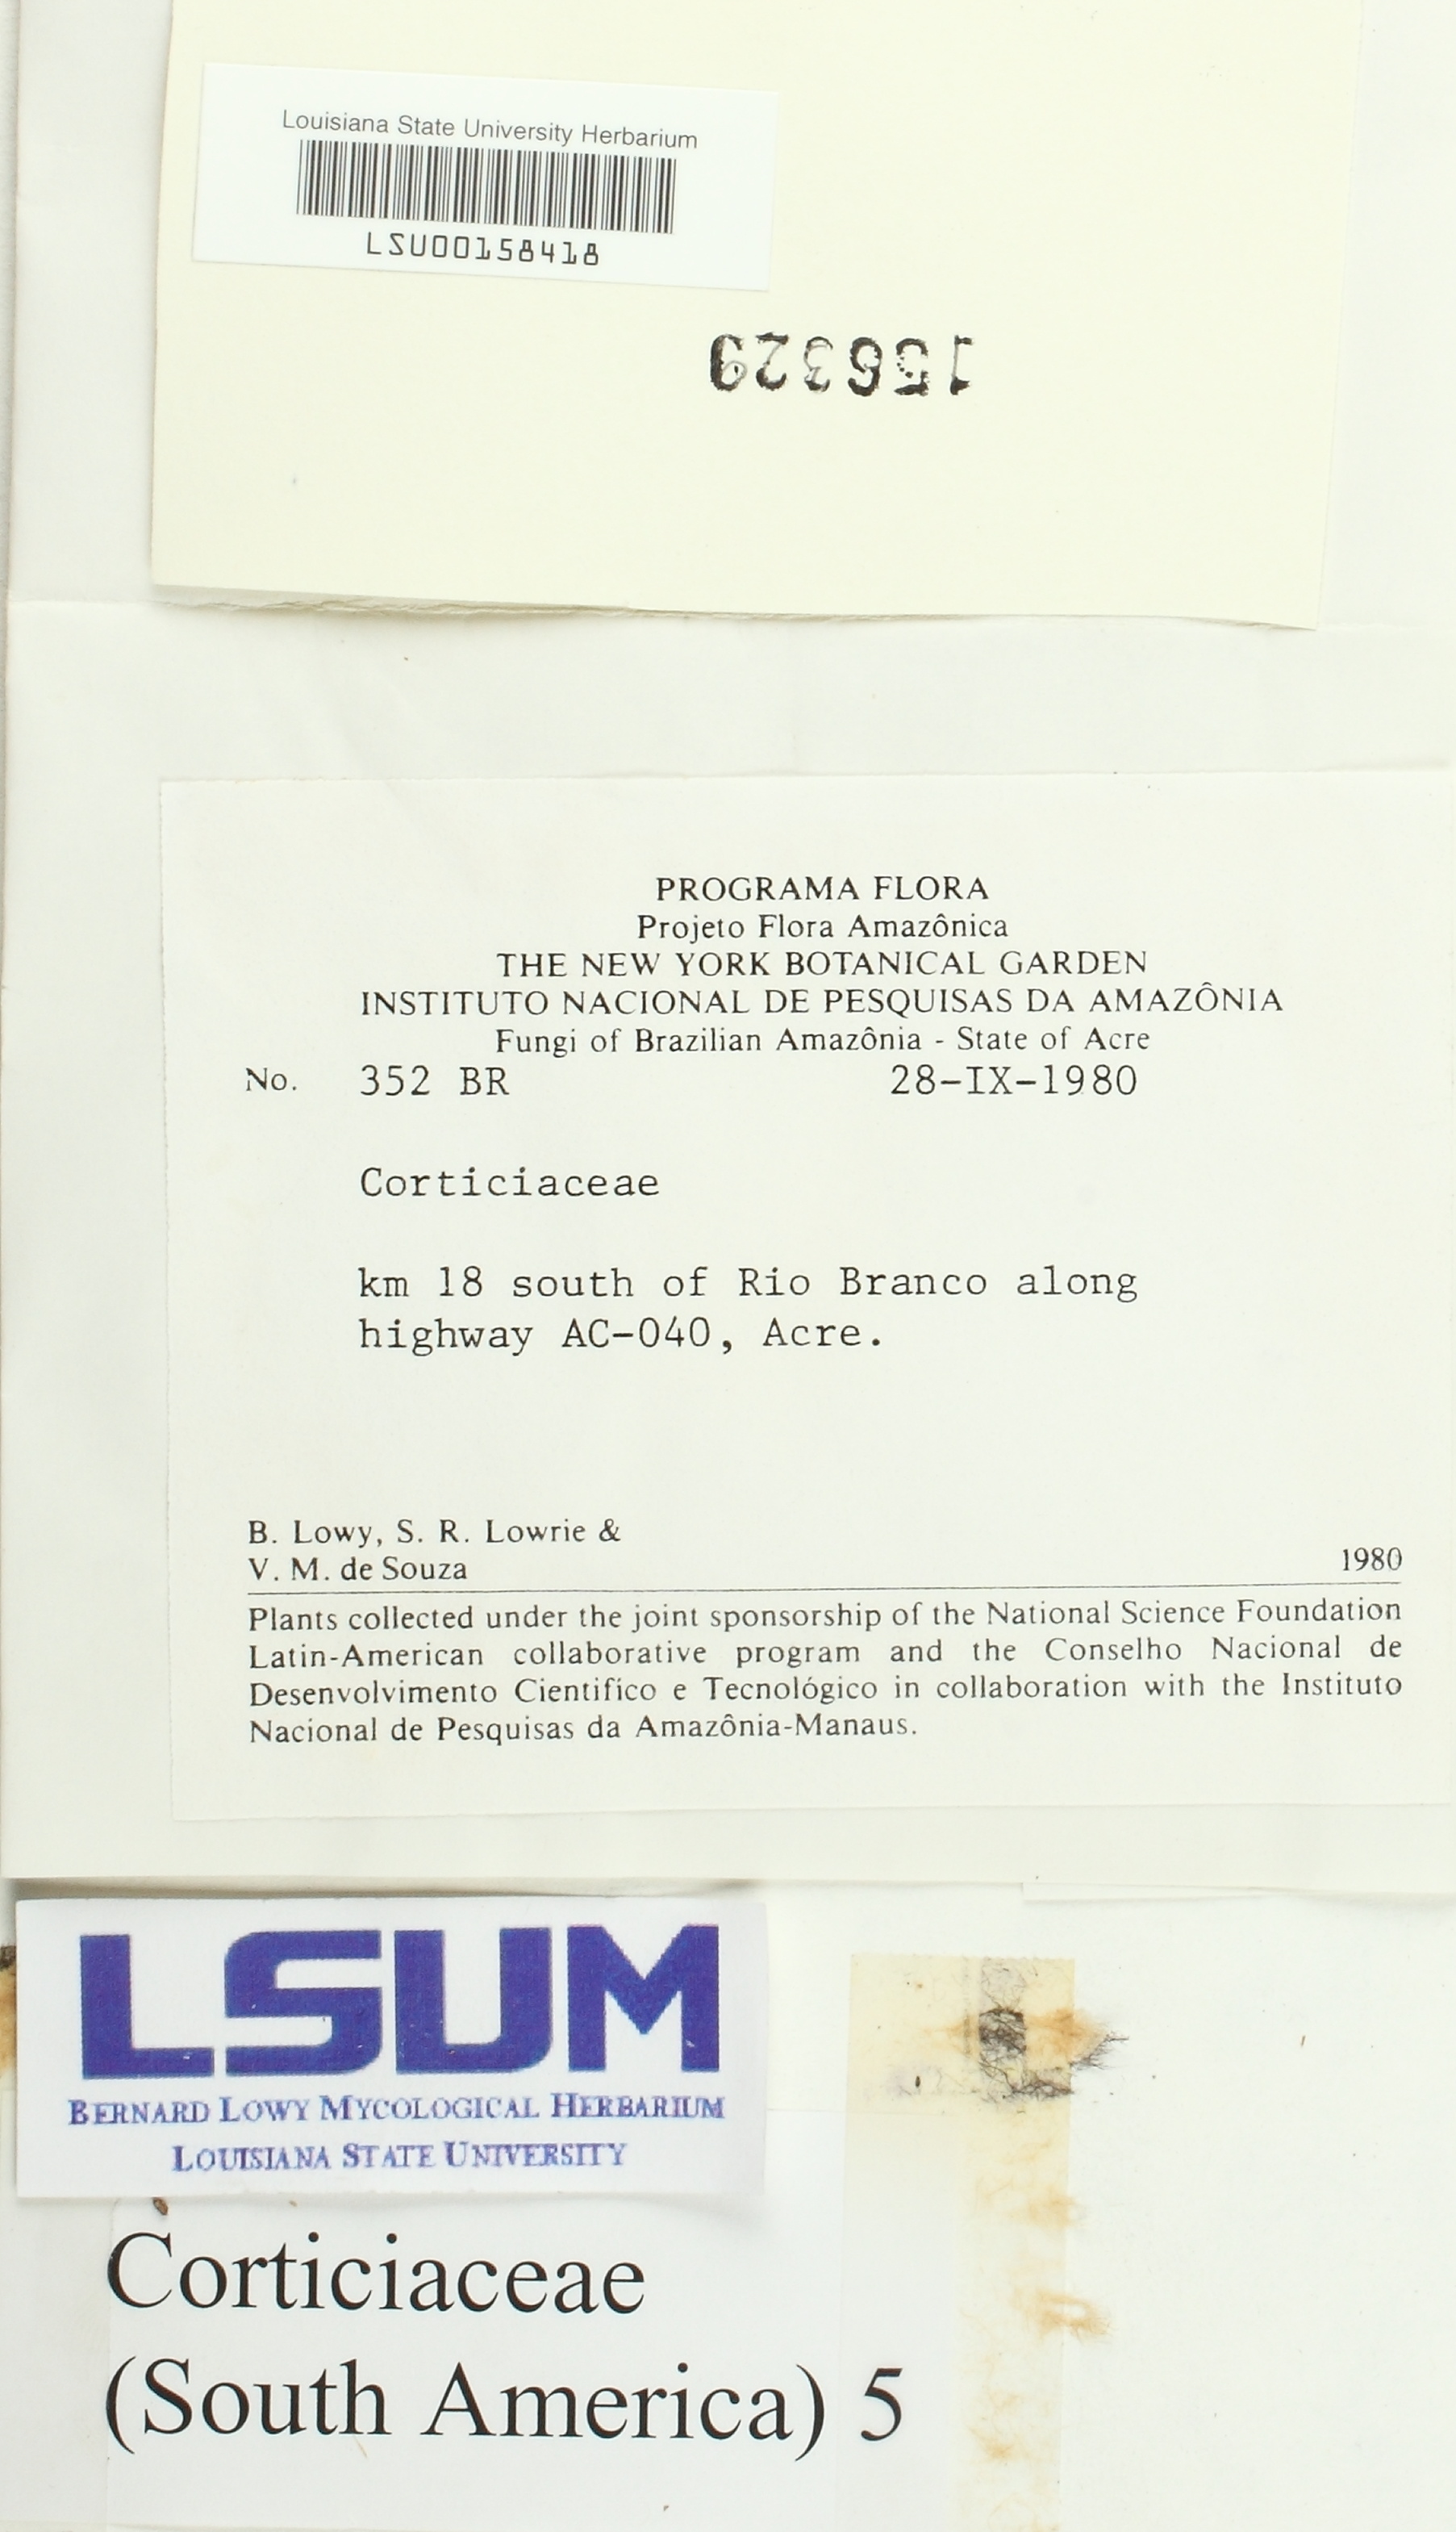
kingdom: Fungi
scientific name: Fungi
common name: Fungi
